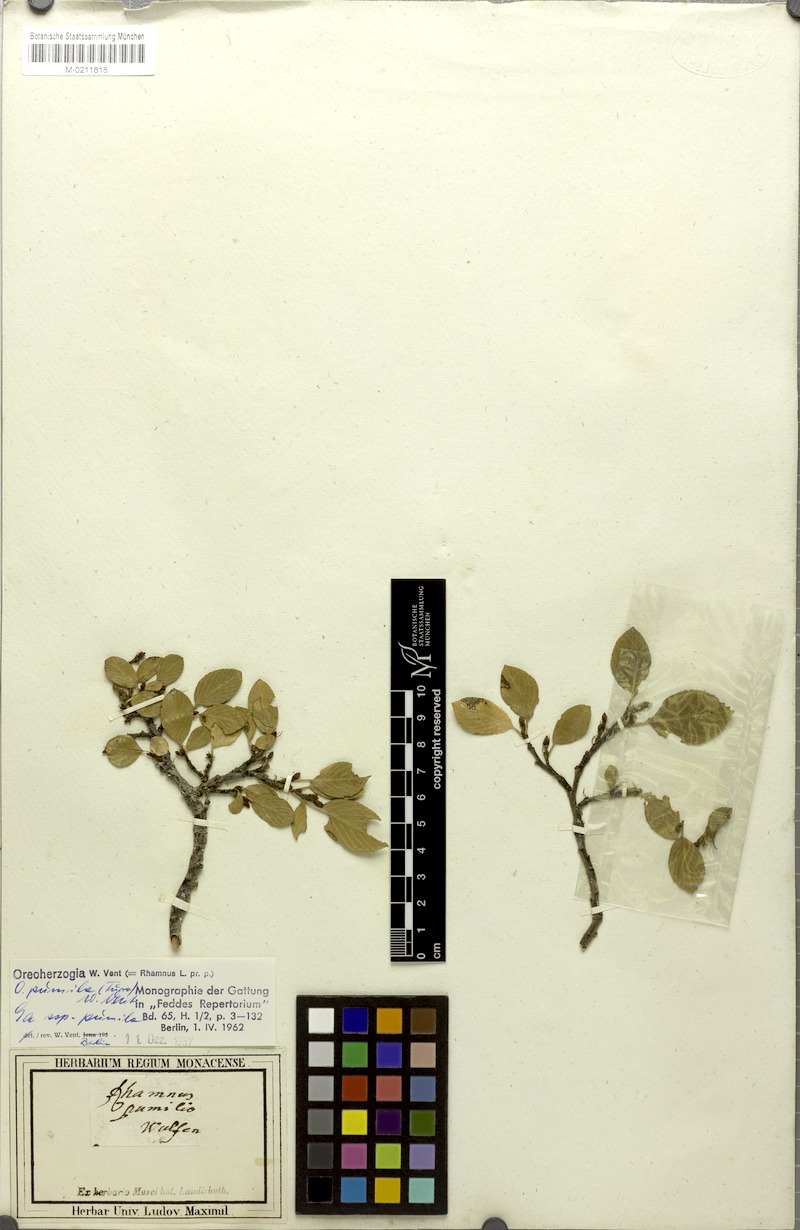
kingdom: Plantae
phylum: Tracheophyta
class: Magnoliopsida
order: Rosales
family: Rhamnaceae
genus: Frangula
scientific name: Frangula rupestris
